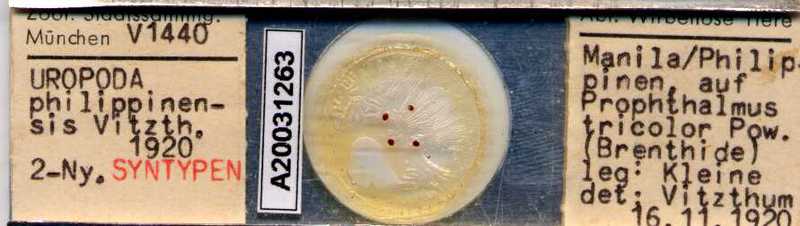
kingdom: Animalia
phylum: Arthropoda
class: Arachnida
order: Mesostigmata
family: Uropodidae
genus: Uropoda
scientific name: Uropoda
